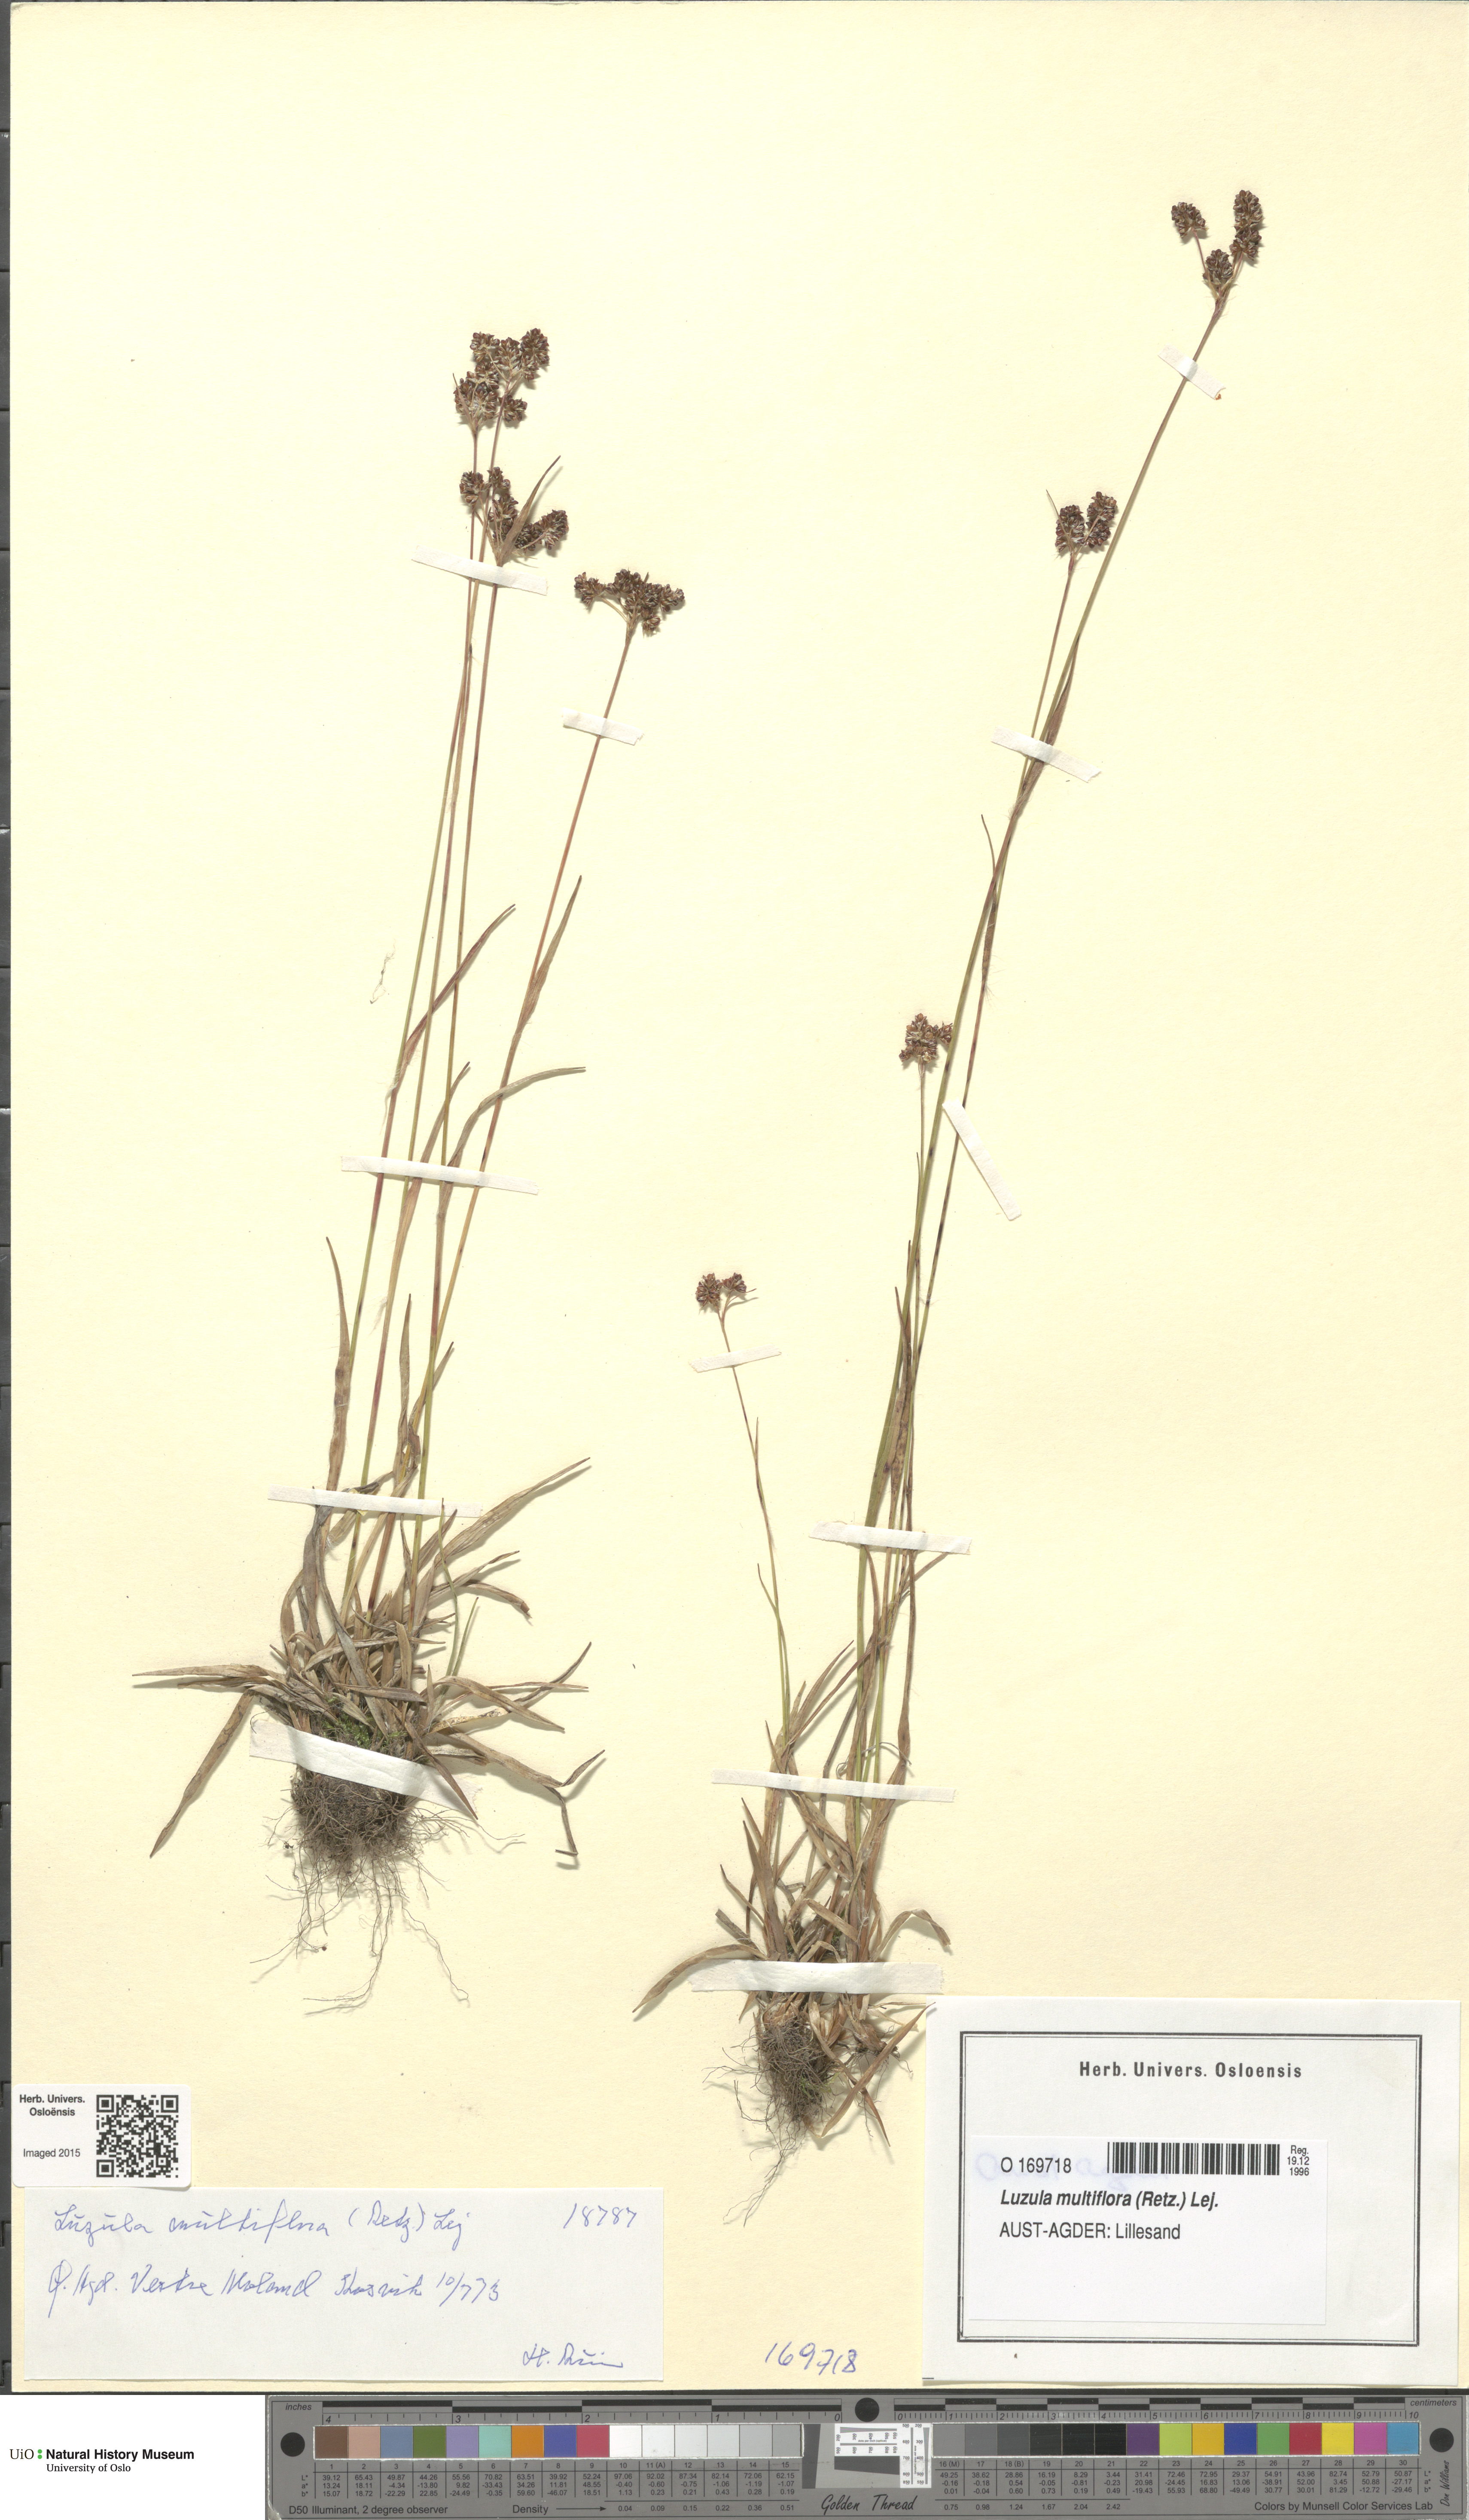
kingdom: Plantae
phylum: Tracheophyta
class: Liliopsida
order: Poales
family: Juncaceae
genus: Luzula
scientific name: Luzula multiflora
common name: Heath wood-rush
